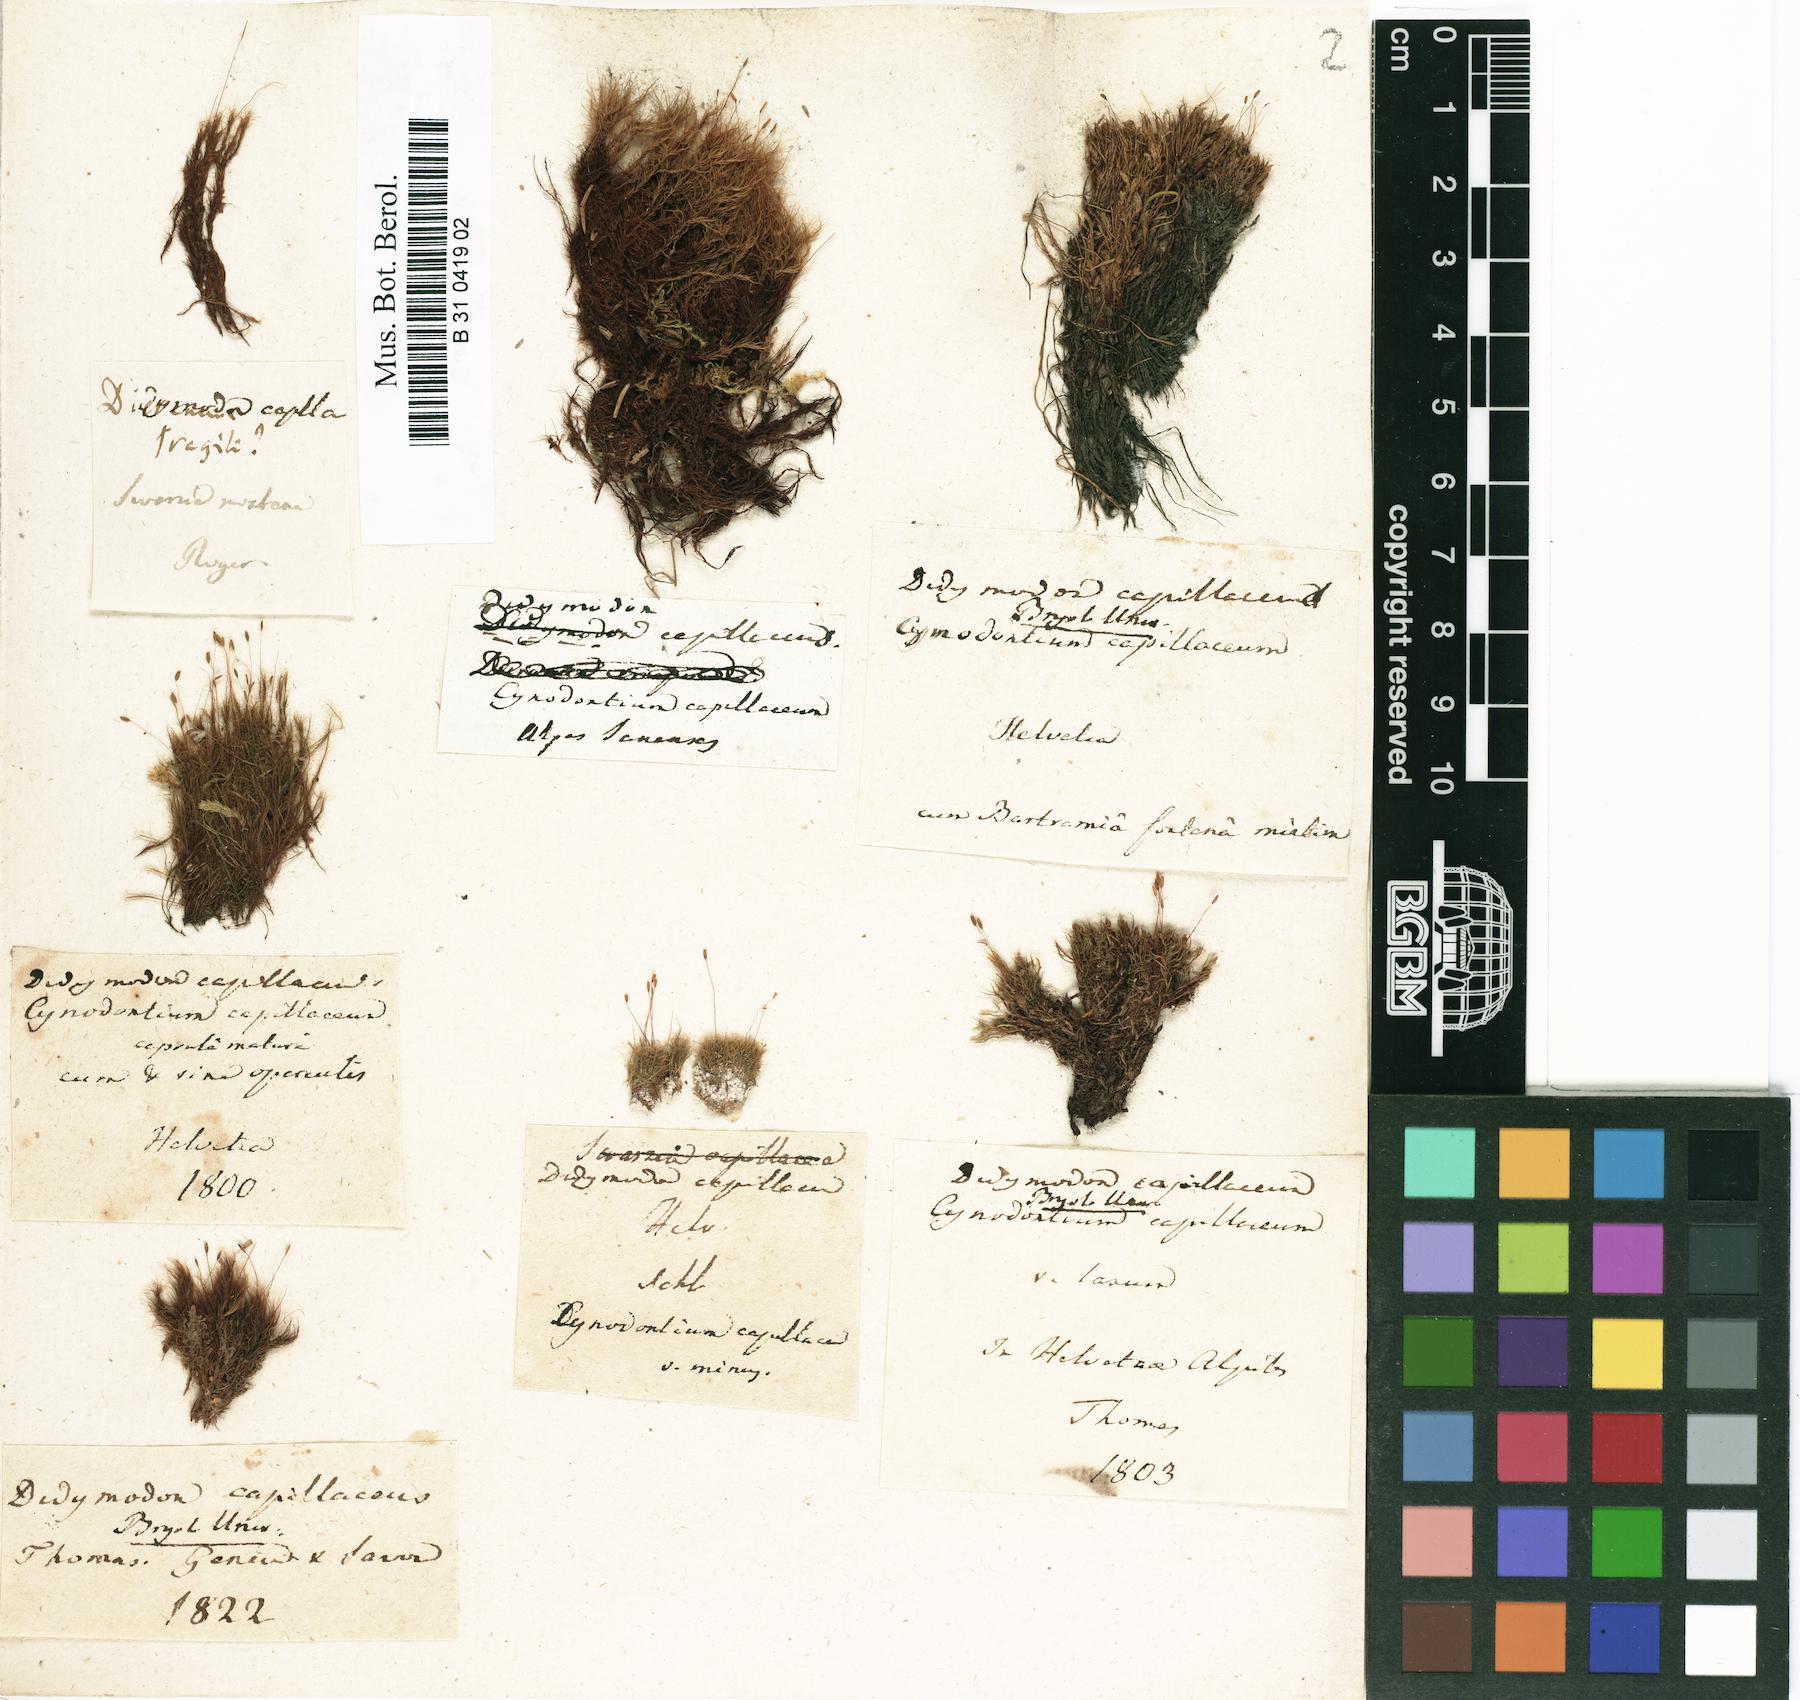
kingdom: Plantae
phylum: Bryophyta
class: Bryopsida
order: Scouleriales
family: Distichiaceae
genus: Distichium
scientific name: Distichium capillaceum
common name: Erect-fruited iris moss
